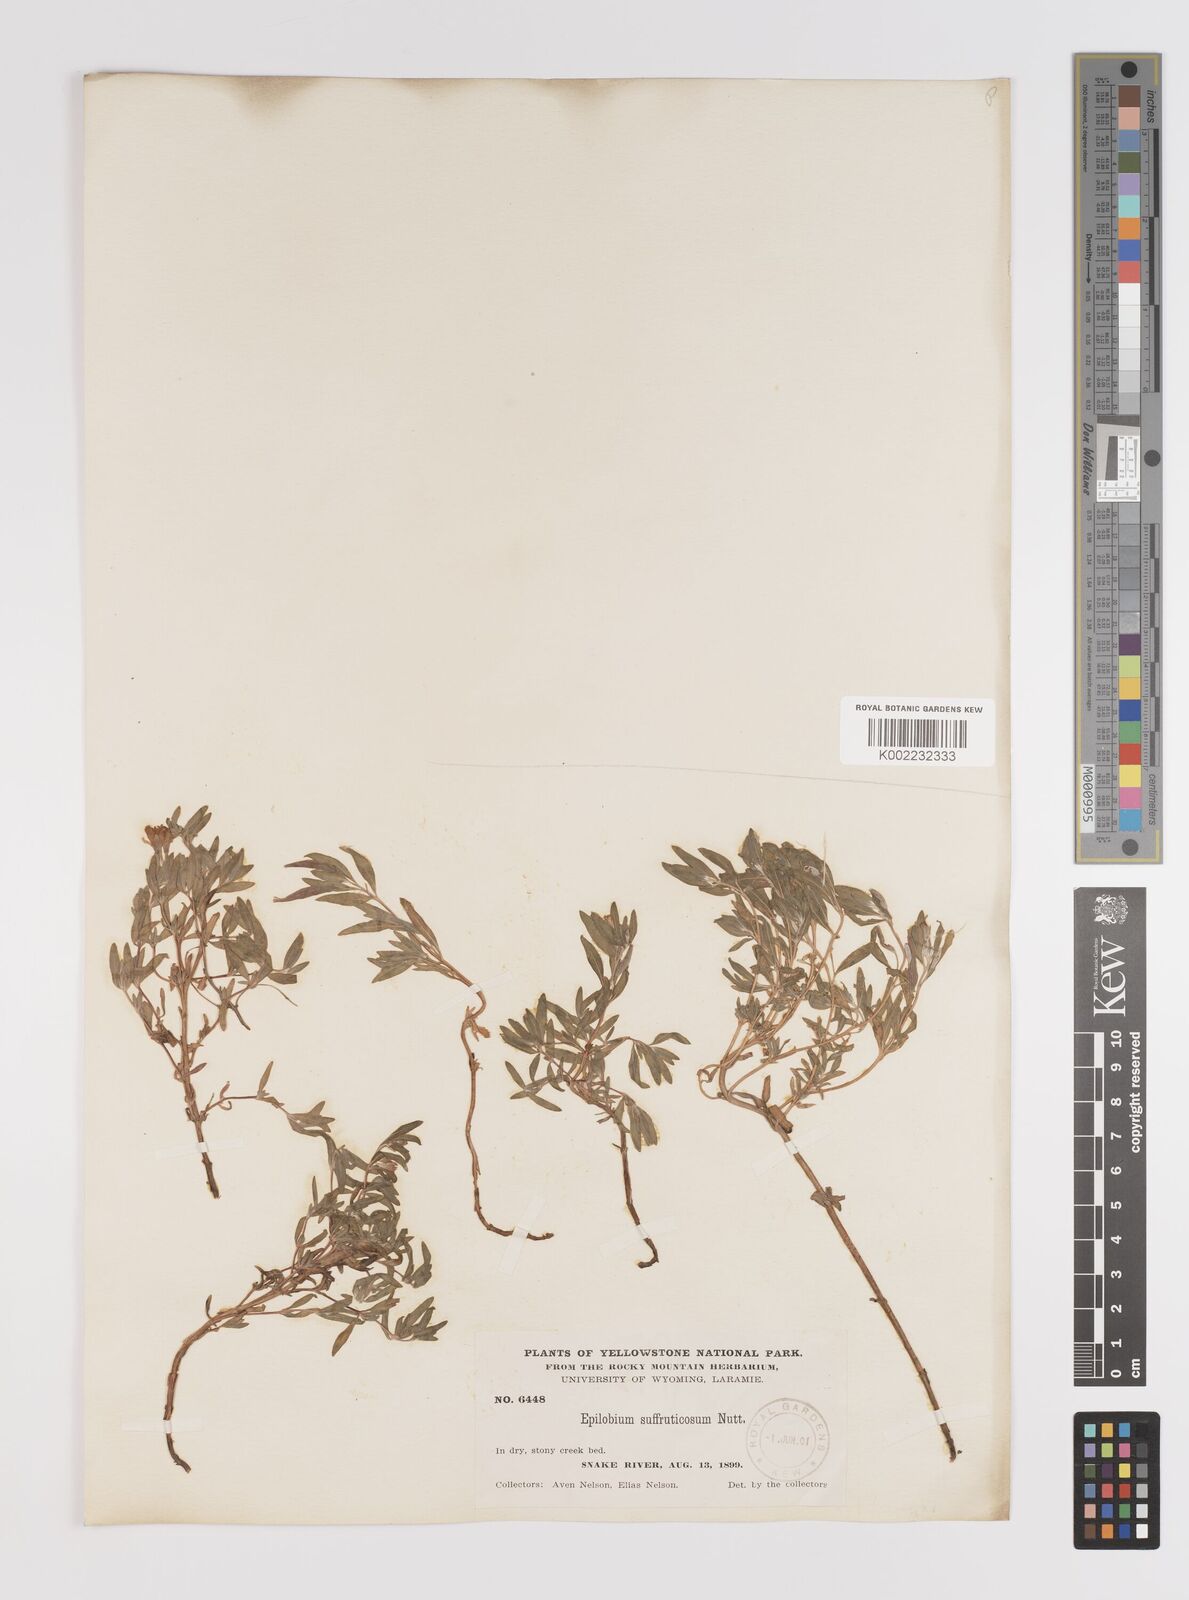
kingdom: Plantae
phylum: Tracheophyta
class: Magnoliopsida
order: Myrtales
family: Onagraceae
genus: Epilobium
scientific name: Epilobium suffruticosum
